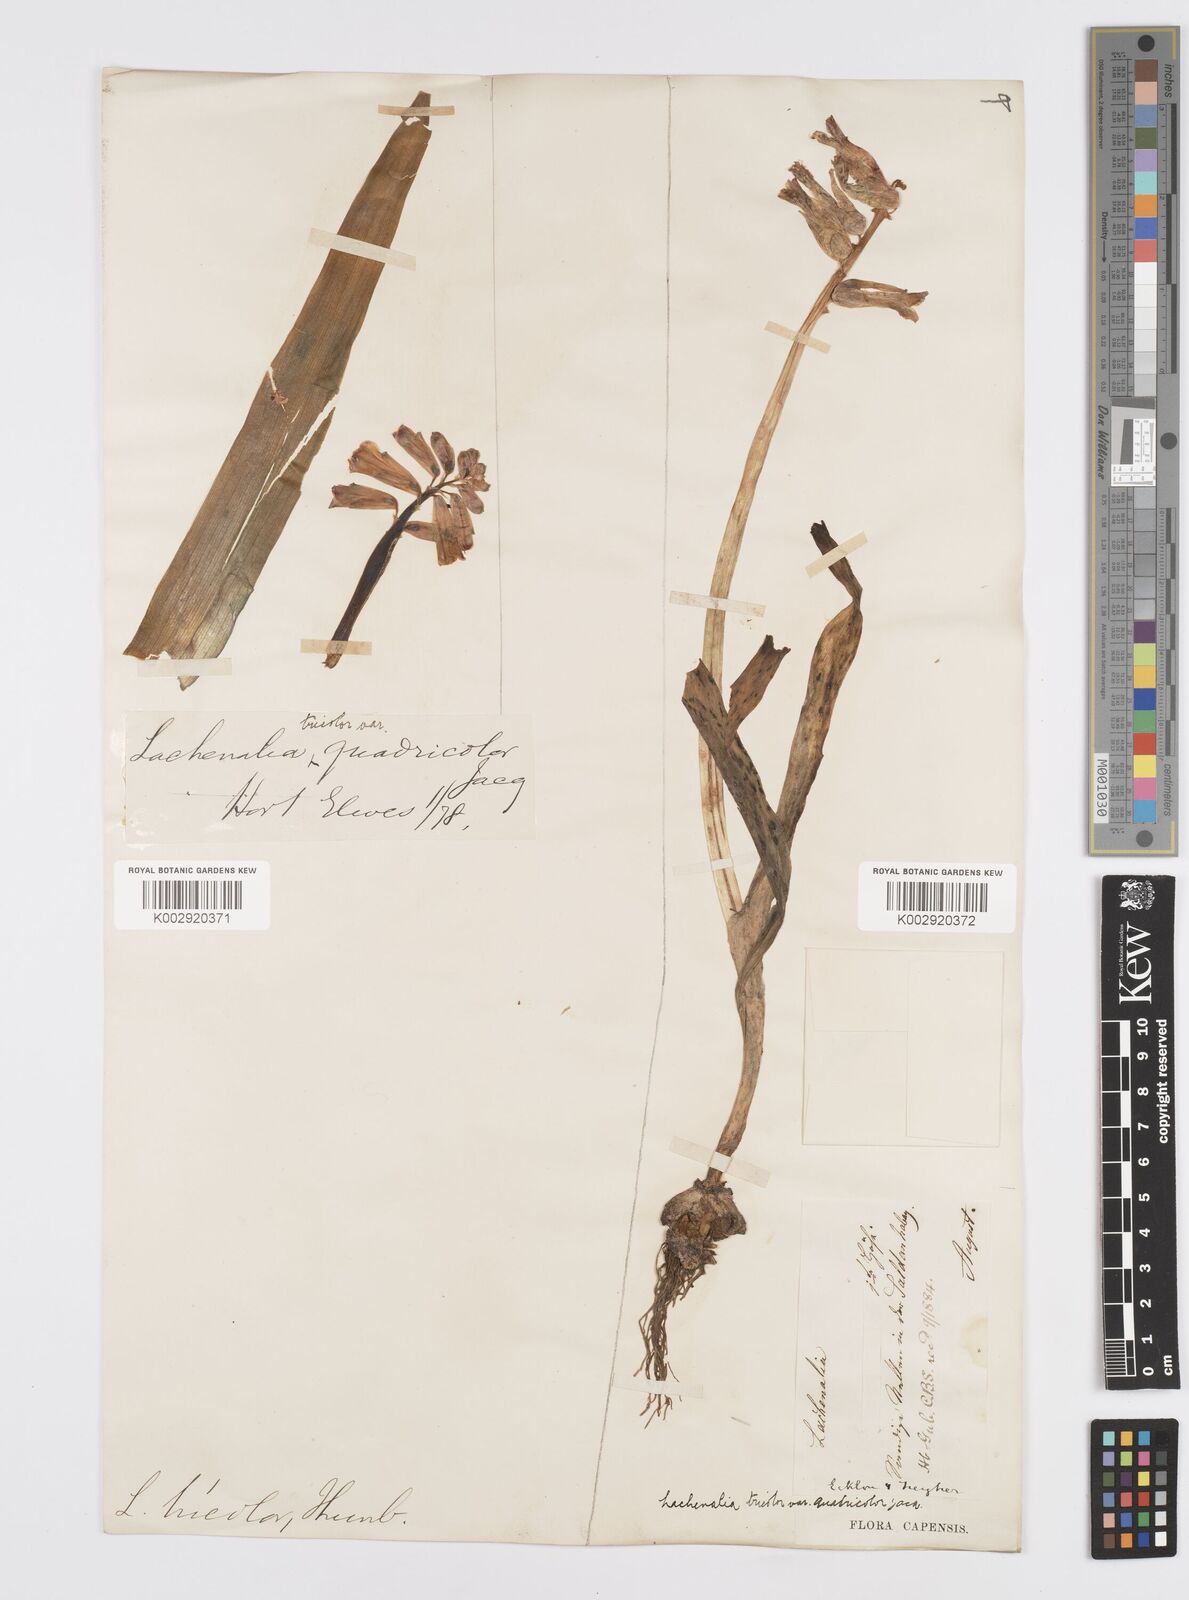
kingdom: Plantae
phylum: Tracheophyta
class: Liliopsida
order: Asparagales
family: Asparagaceae
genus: Lachenalia
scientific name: Lachenalia aloides
